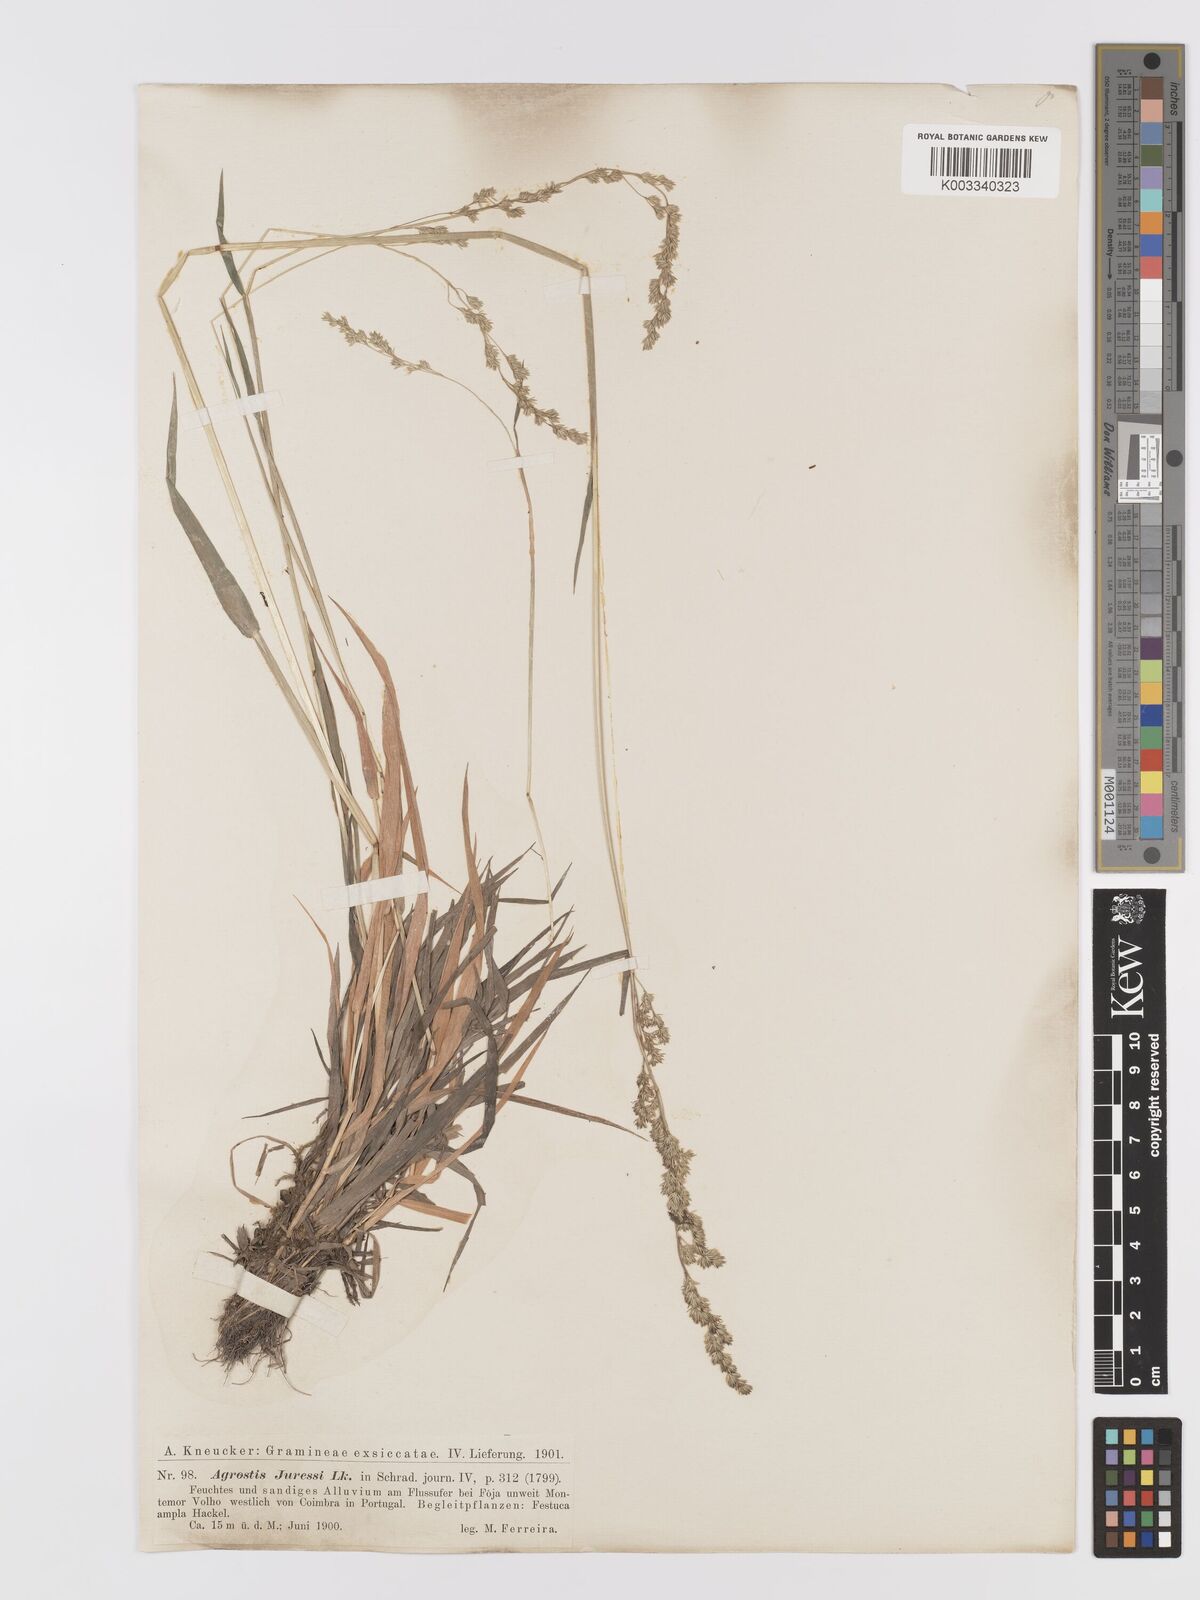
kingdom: Plantae
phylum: Tracheophyta
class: Liliopsida
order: Poales
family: Poaceae
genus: Agrostis
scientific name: Agrostis juressi
